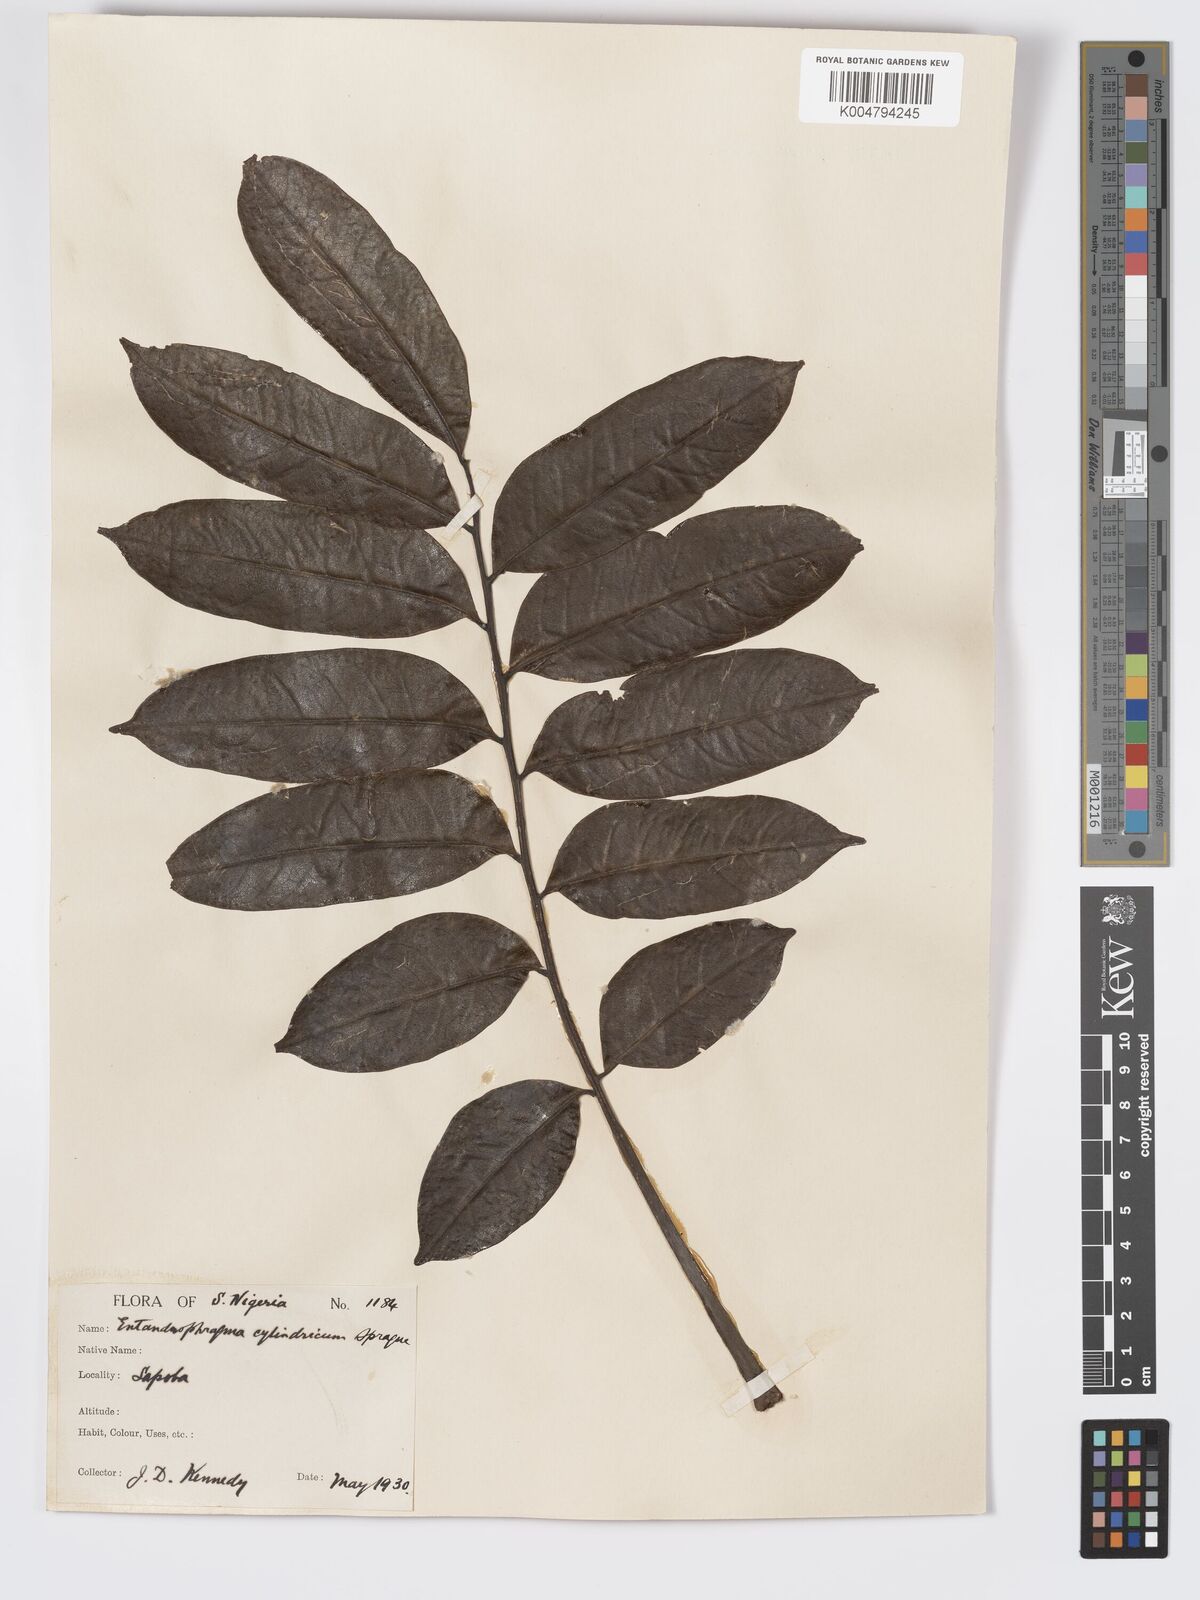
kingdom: Plantae
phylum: Tracheophyta
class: Magnoliopsida
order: Sapindales
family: Meliaceae
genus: Entandrophragma
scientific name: Entandrophragma cylindricum
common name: Sapele
